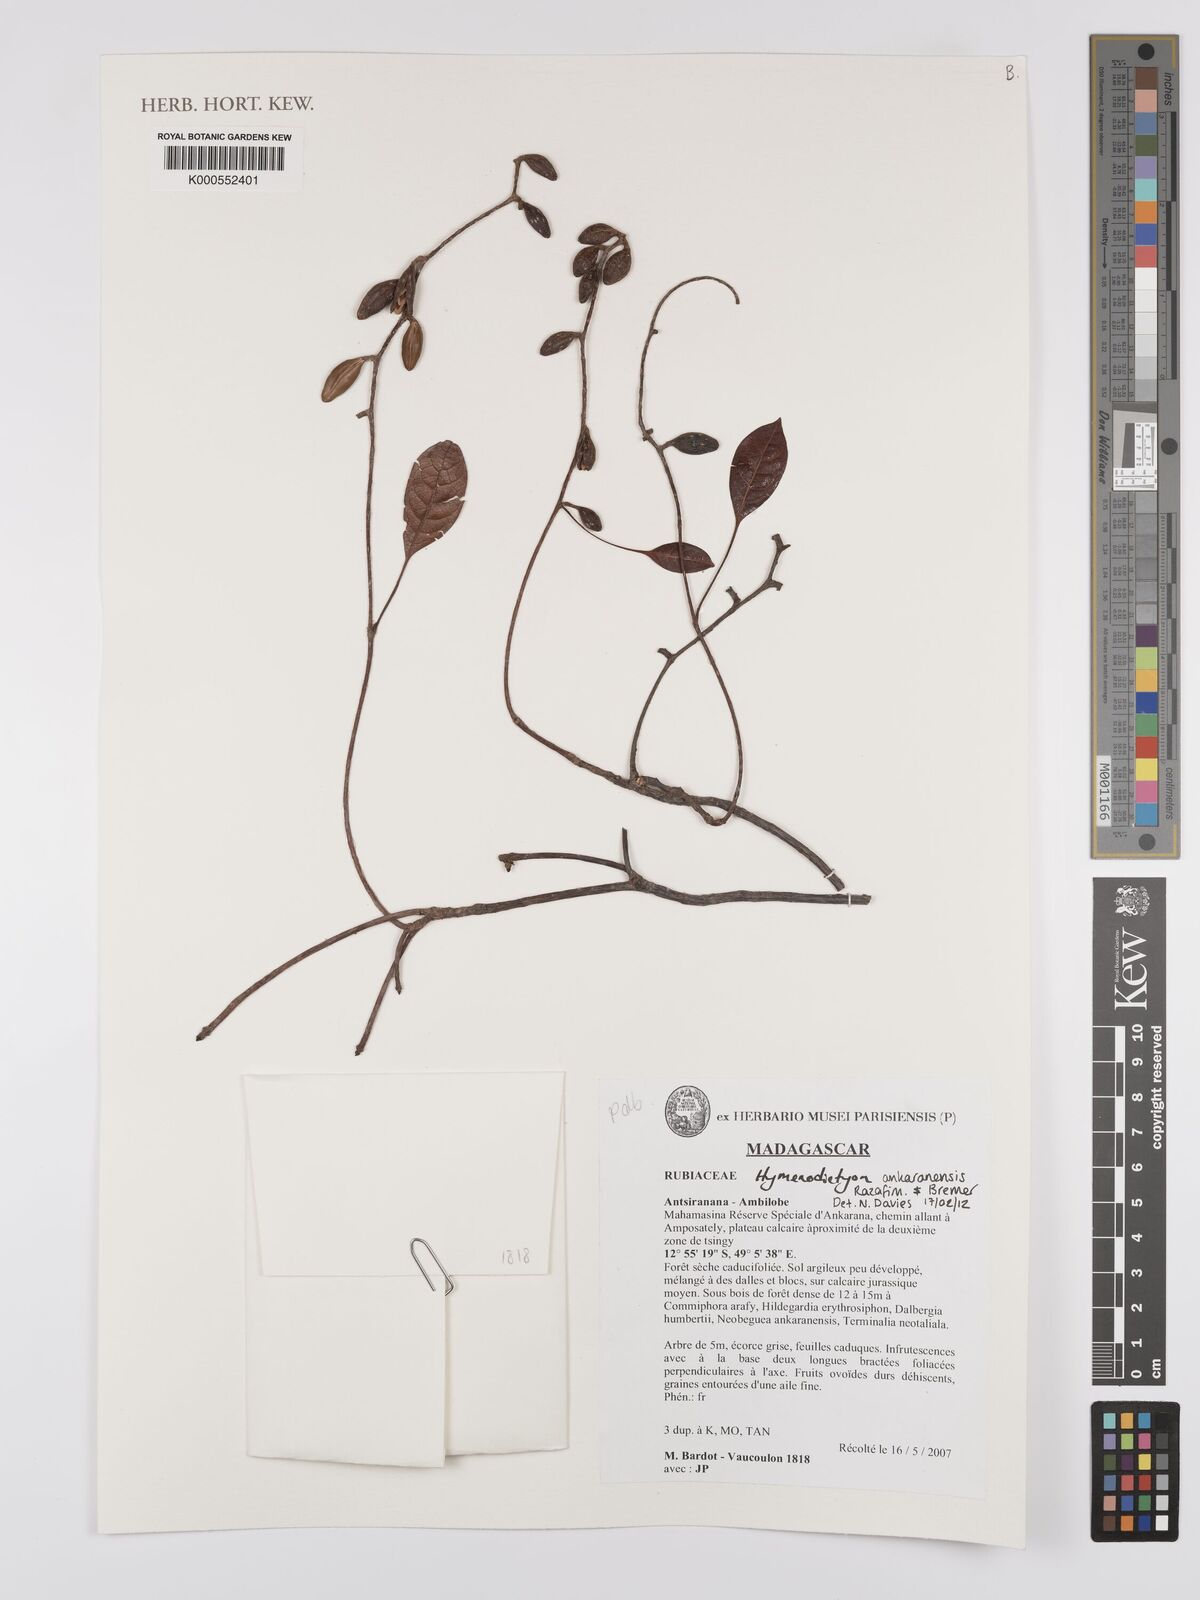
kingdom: Plantae
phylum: Tracheophyta
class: Magnoliopsida
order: Gentianales
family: Rubiaceae
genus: Hymenodictyon
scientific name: Hymenodictyon antakaranensis
